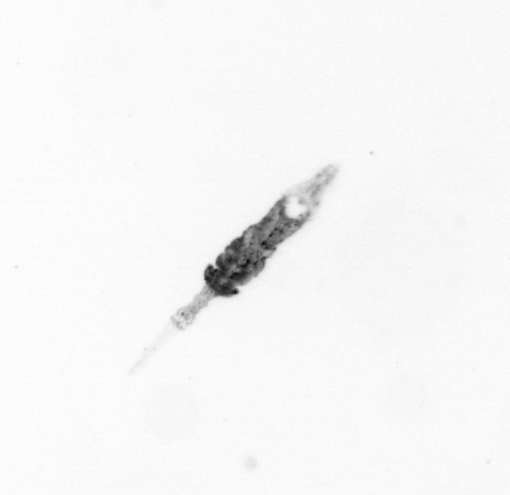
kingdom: Animalia
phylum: Arthropoda
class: Copepoda
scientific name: Copepoda
